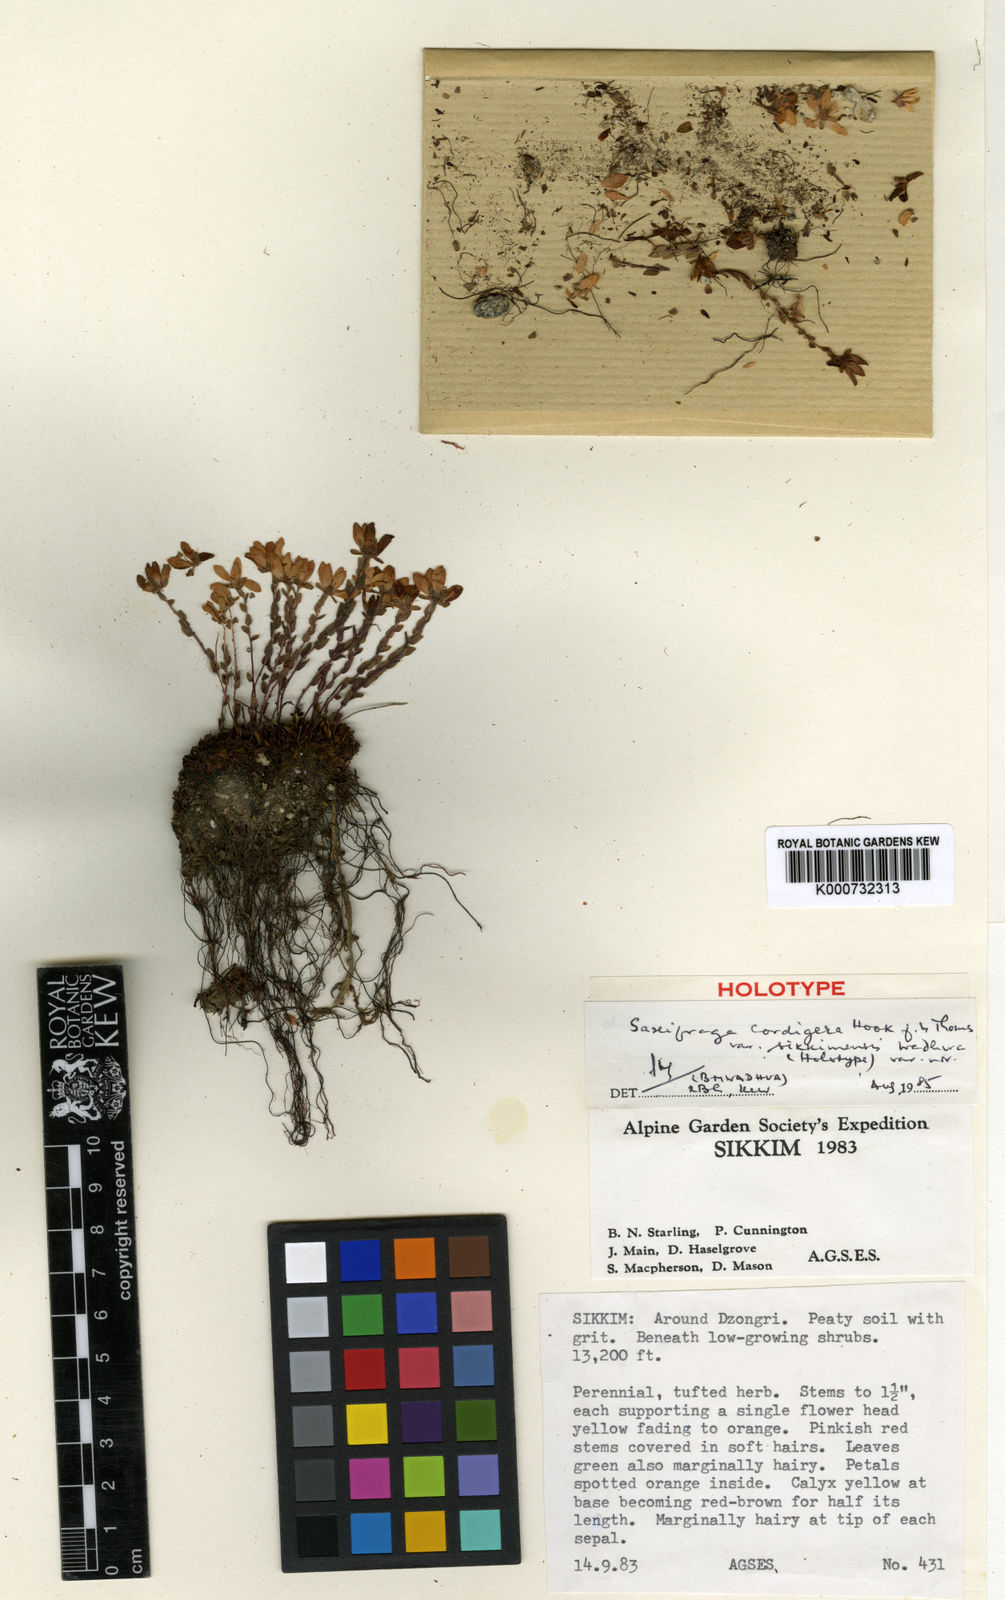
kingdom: Plantae
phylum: Tracheophyta
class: Magnoliopsida
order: Saxifragales
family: Saxifragaceae
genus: Saxifraga
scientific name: Saxifraga cordigera
